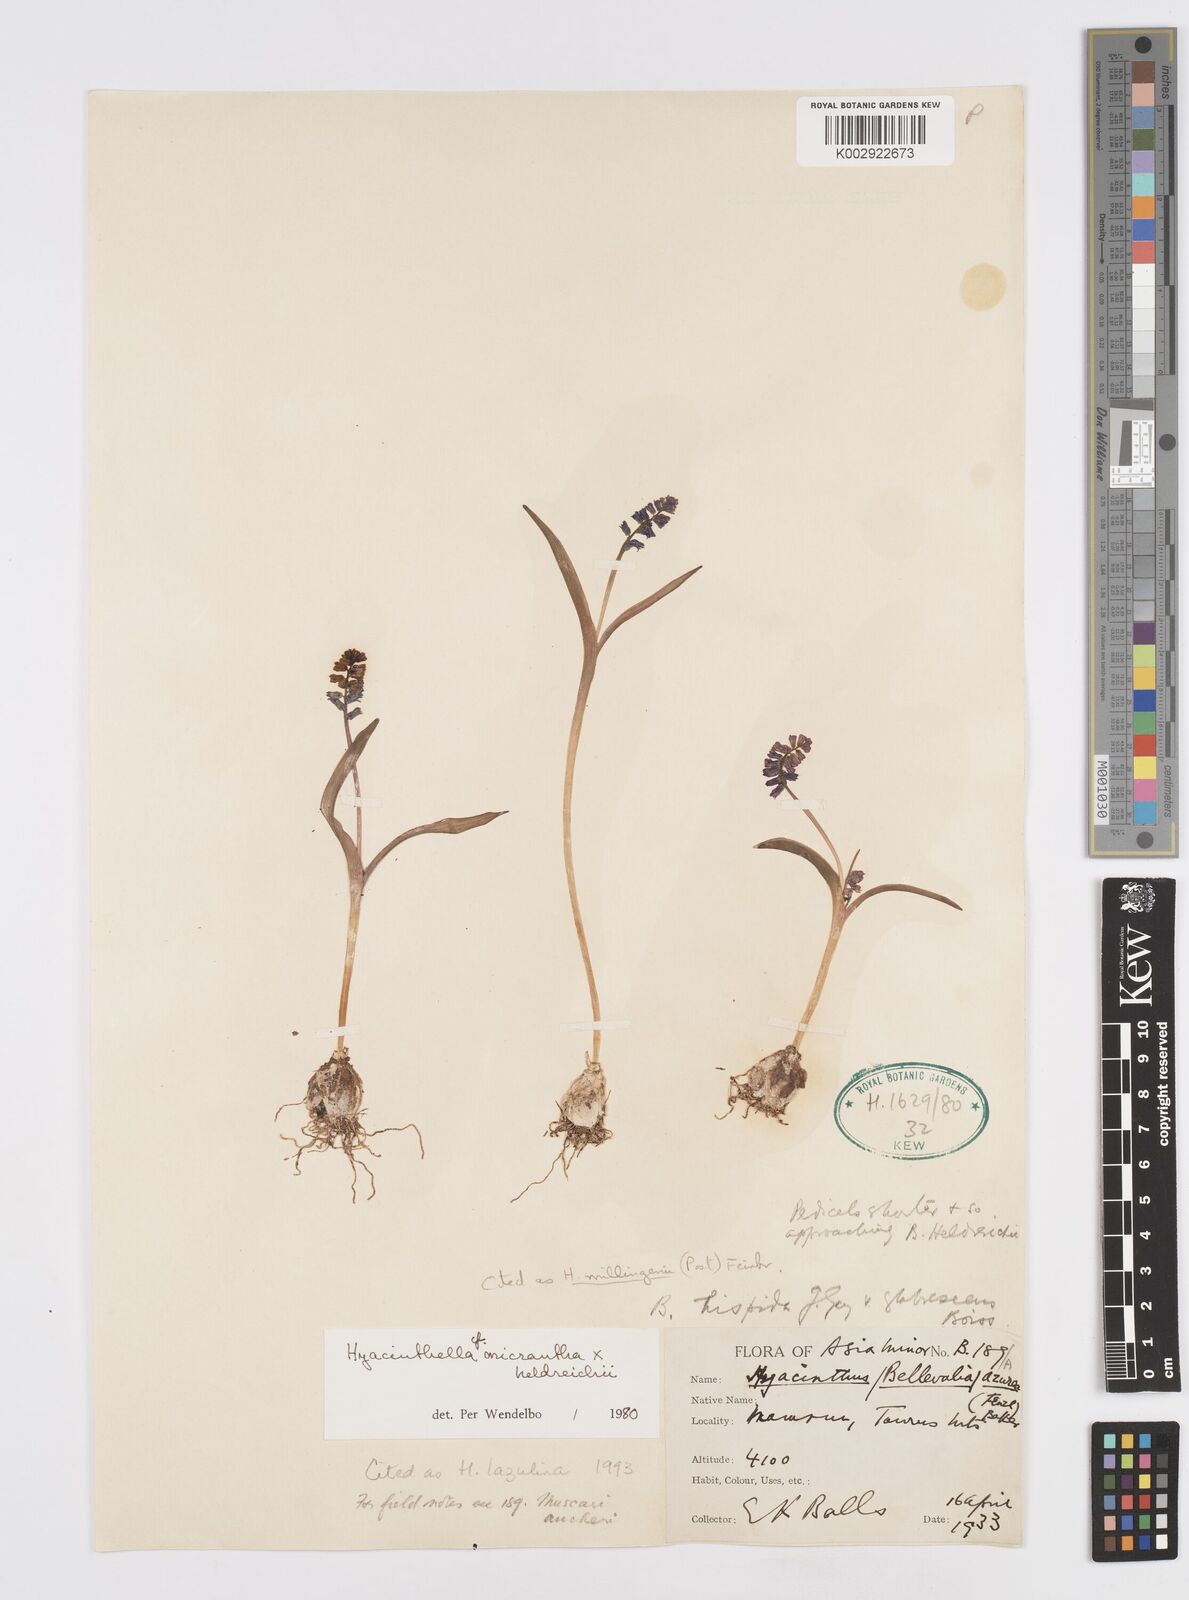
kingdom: Plantae
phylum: Tracheophyta
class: Liliopsida
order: Asparagales
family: Asparagaceae
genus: Hyacinthella
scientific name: Hyacinthella lazulina
